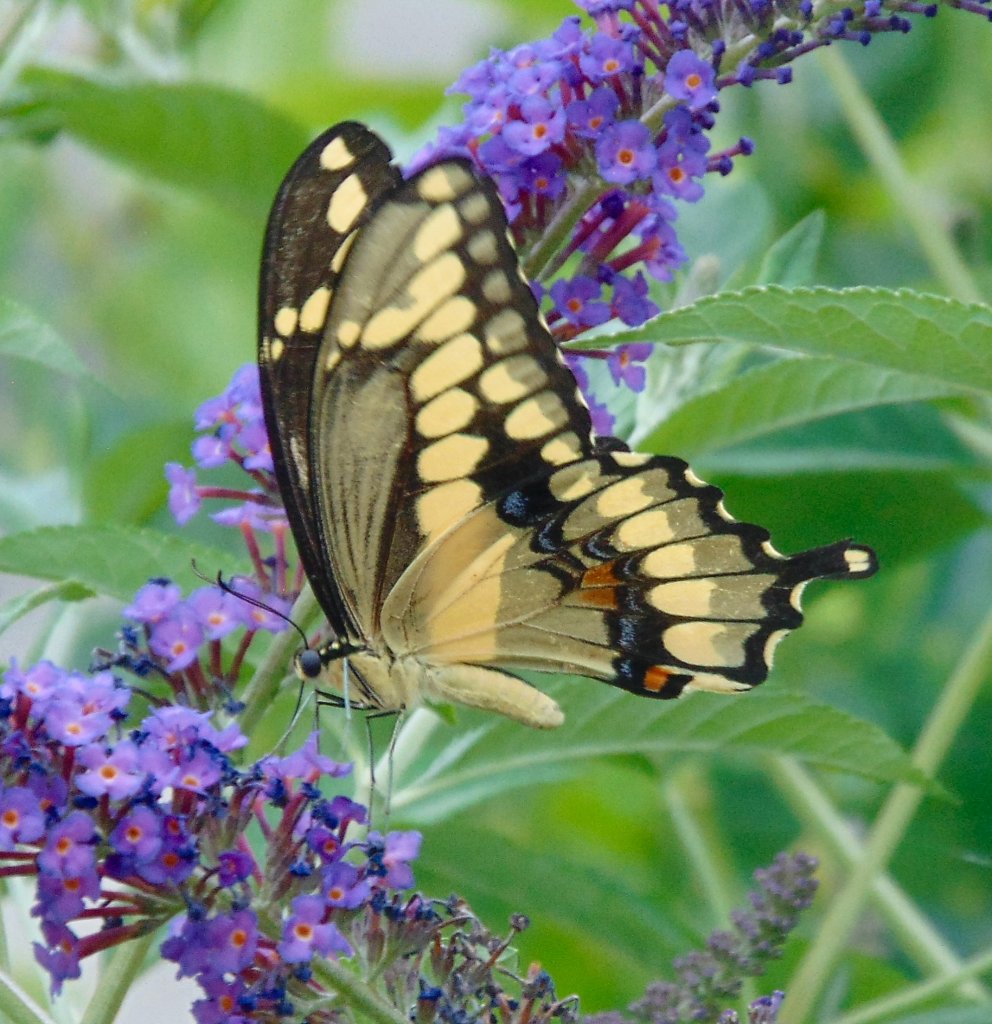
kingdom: Animalia
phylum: Arthropoda
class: Insecta
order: Lepidoptera
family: Papilionidae
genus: Papilio
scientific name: Papilio cresphontes
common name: Eastern Giant Swallowtail
